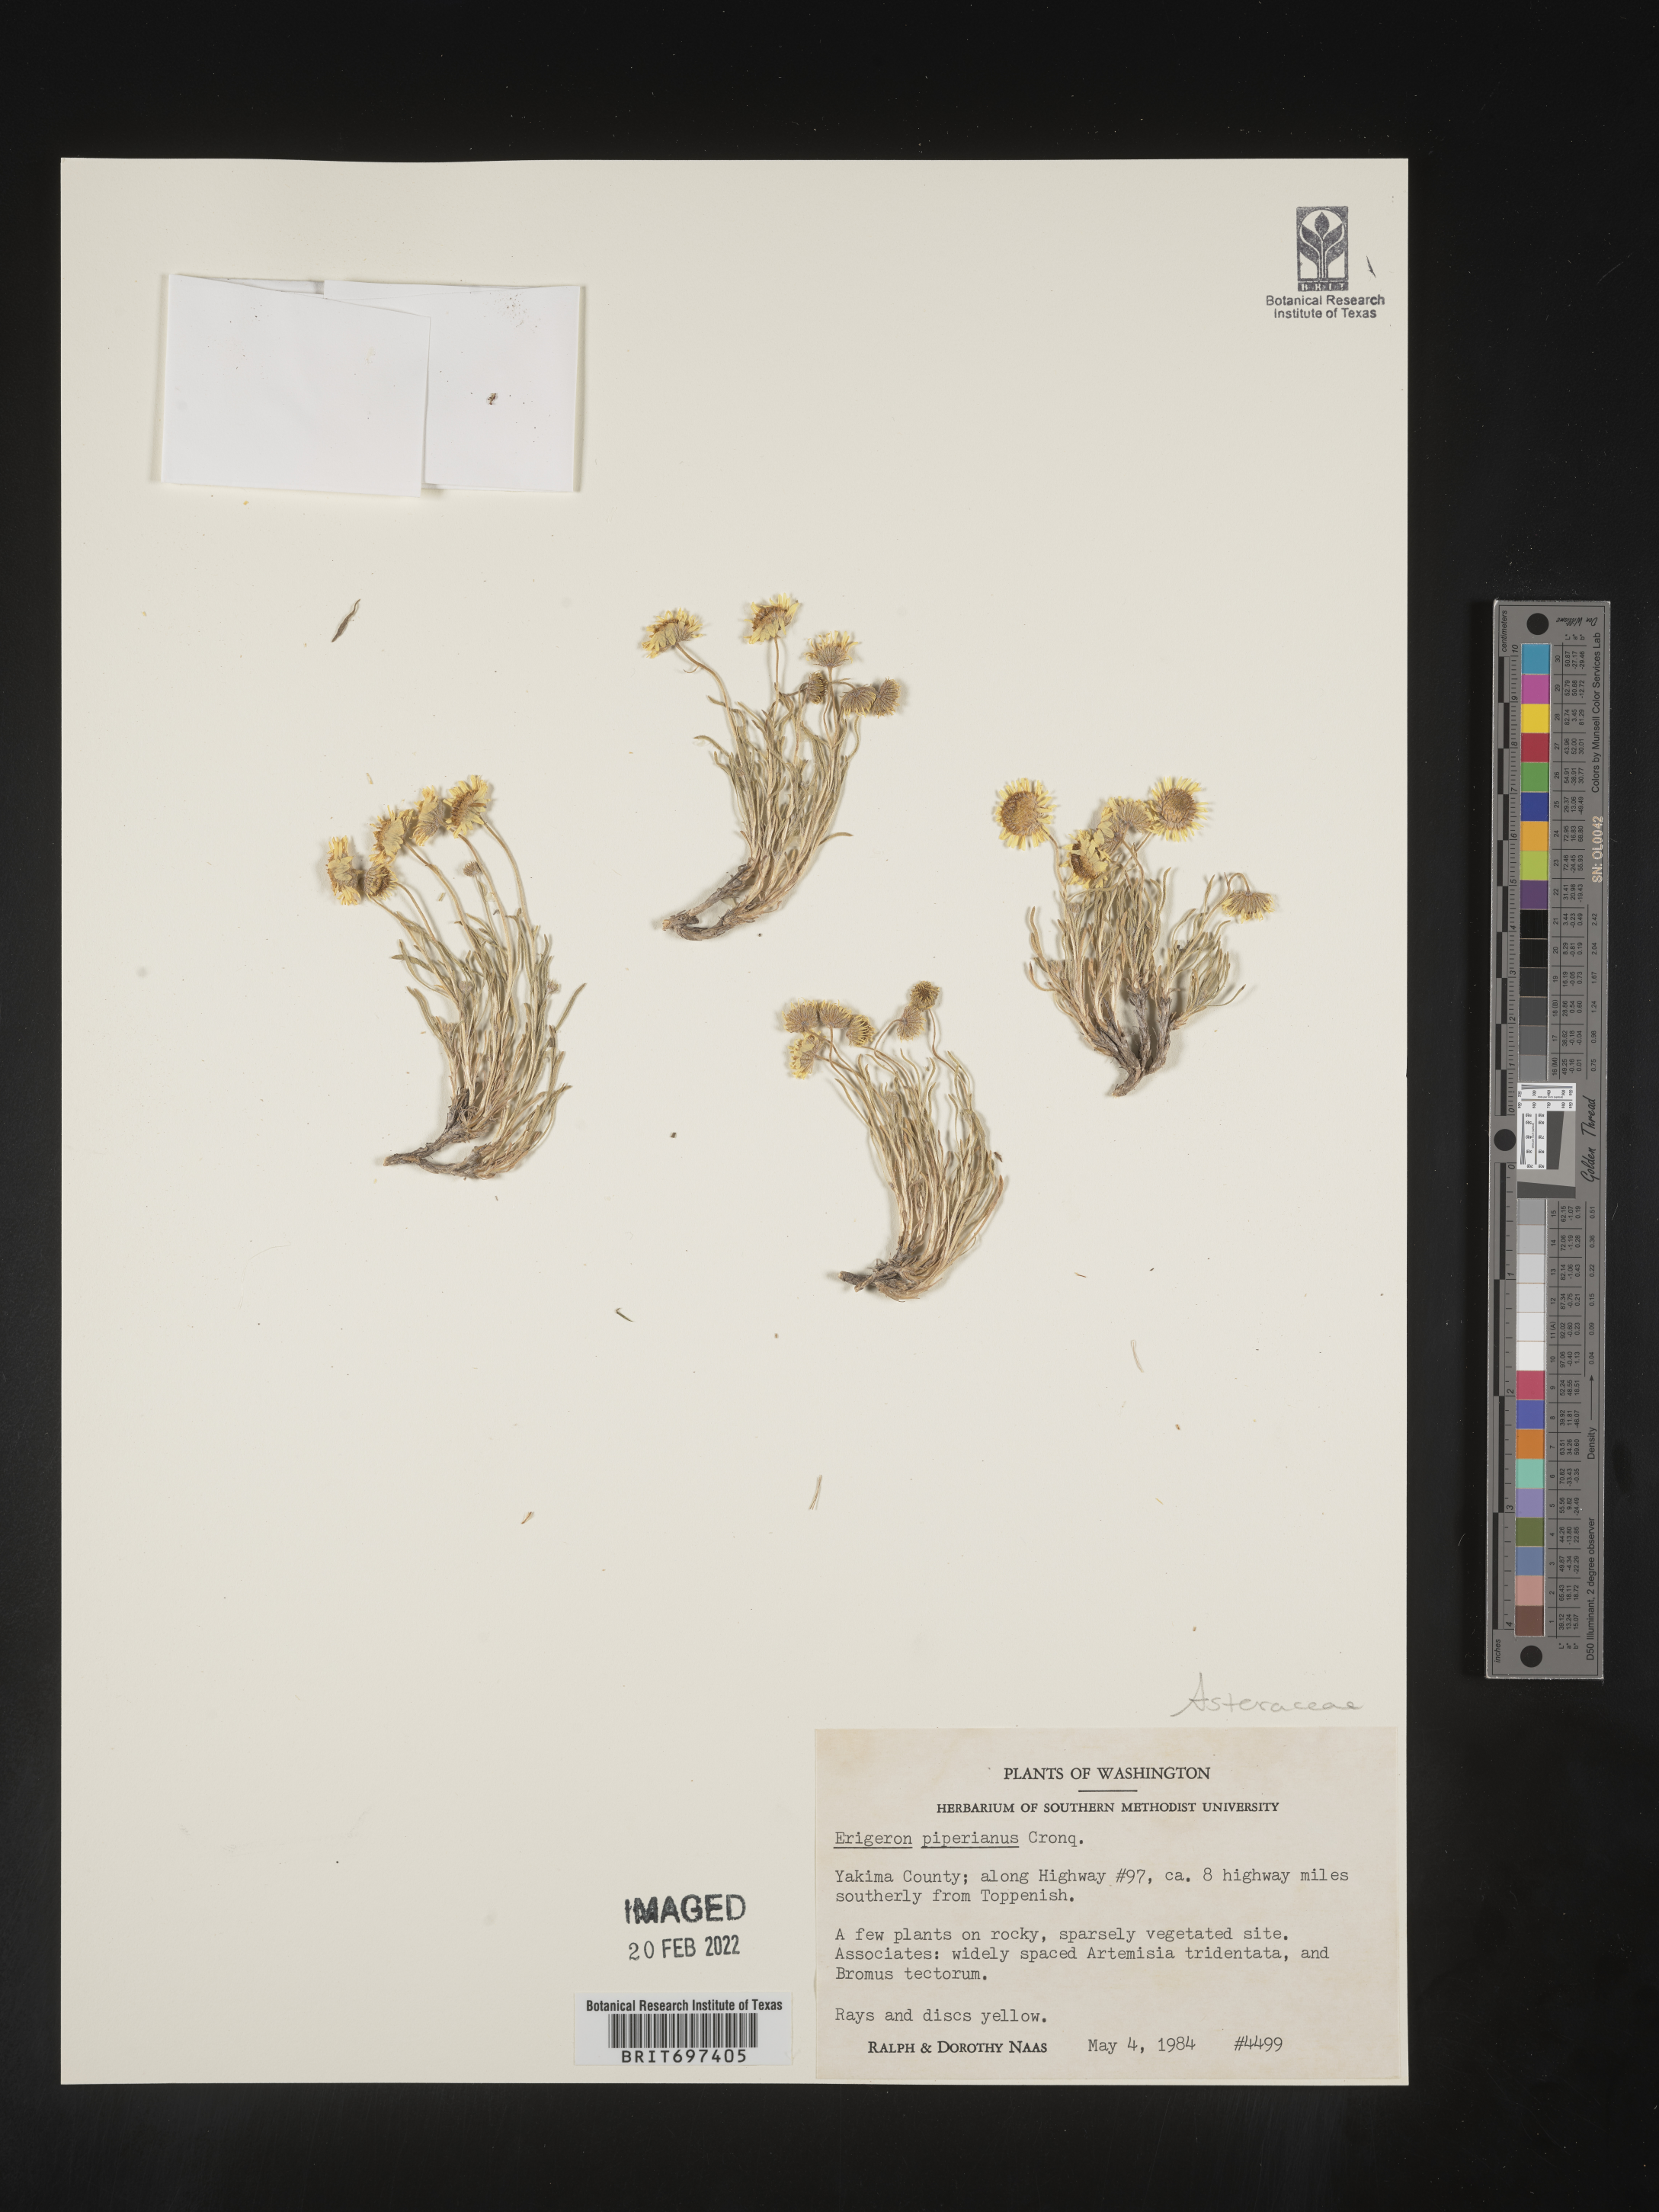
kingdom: Plantae
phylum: Tracheophyta
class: Magnoliopsida
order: Asterales
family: Asteraceae
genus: Erigeron
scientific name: Erigeron piperianus
